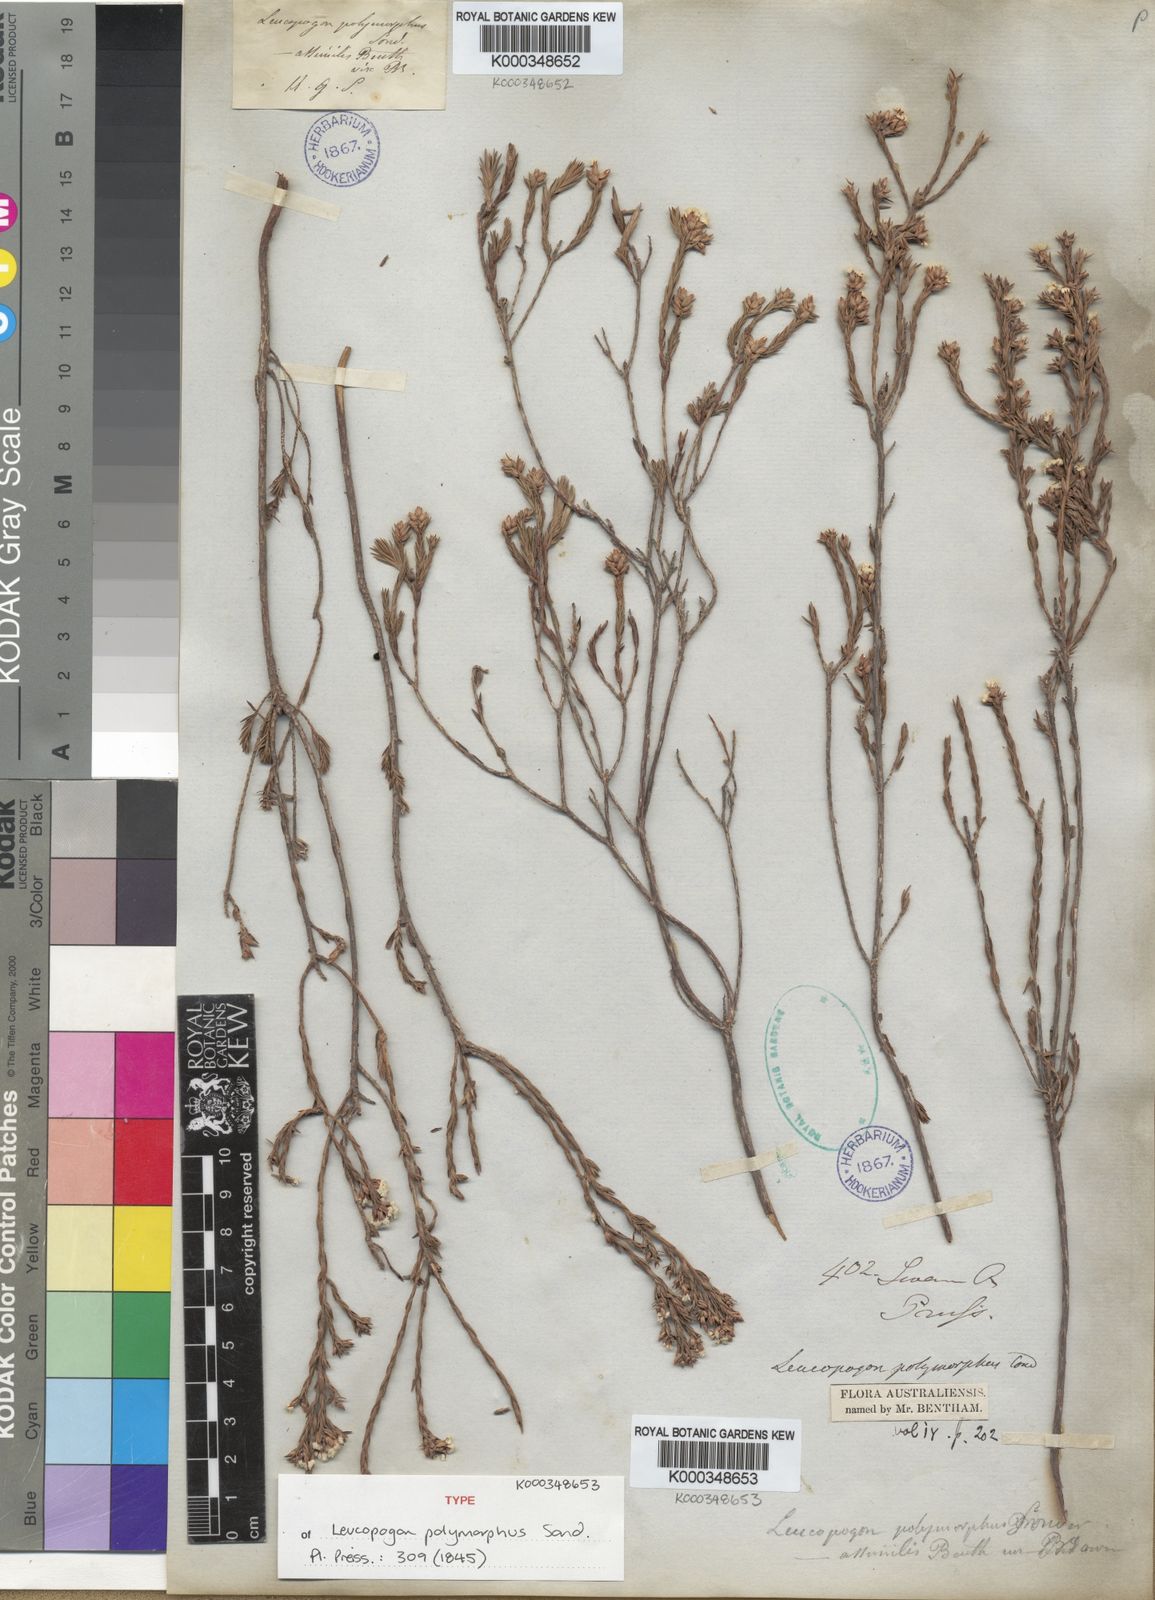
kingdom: Plantae
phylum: Tracheophyta
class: Magnoliopsida
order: Ericales
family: Ericaceae
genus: Leucopogon
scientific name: Leucopogon polymorphus
